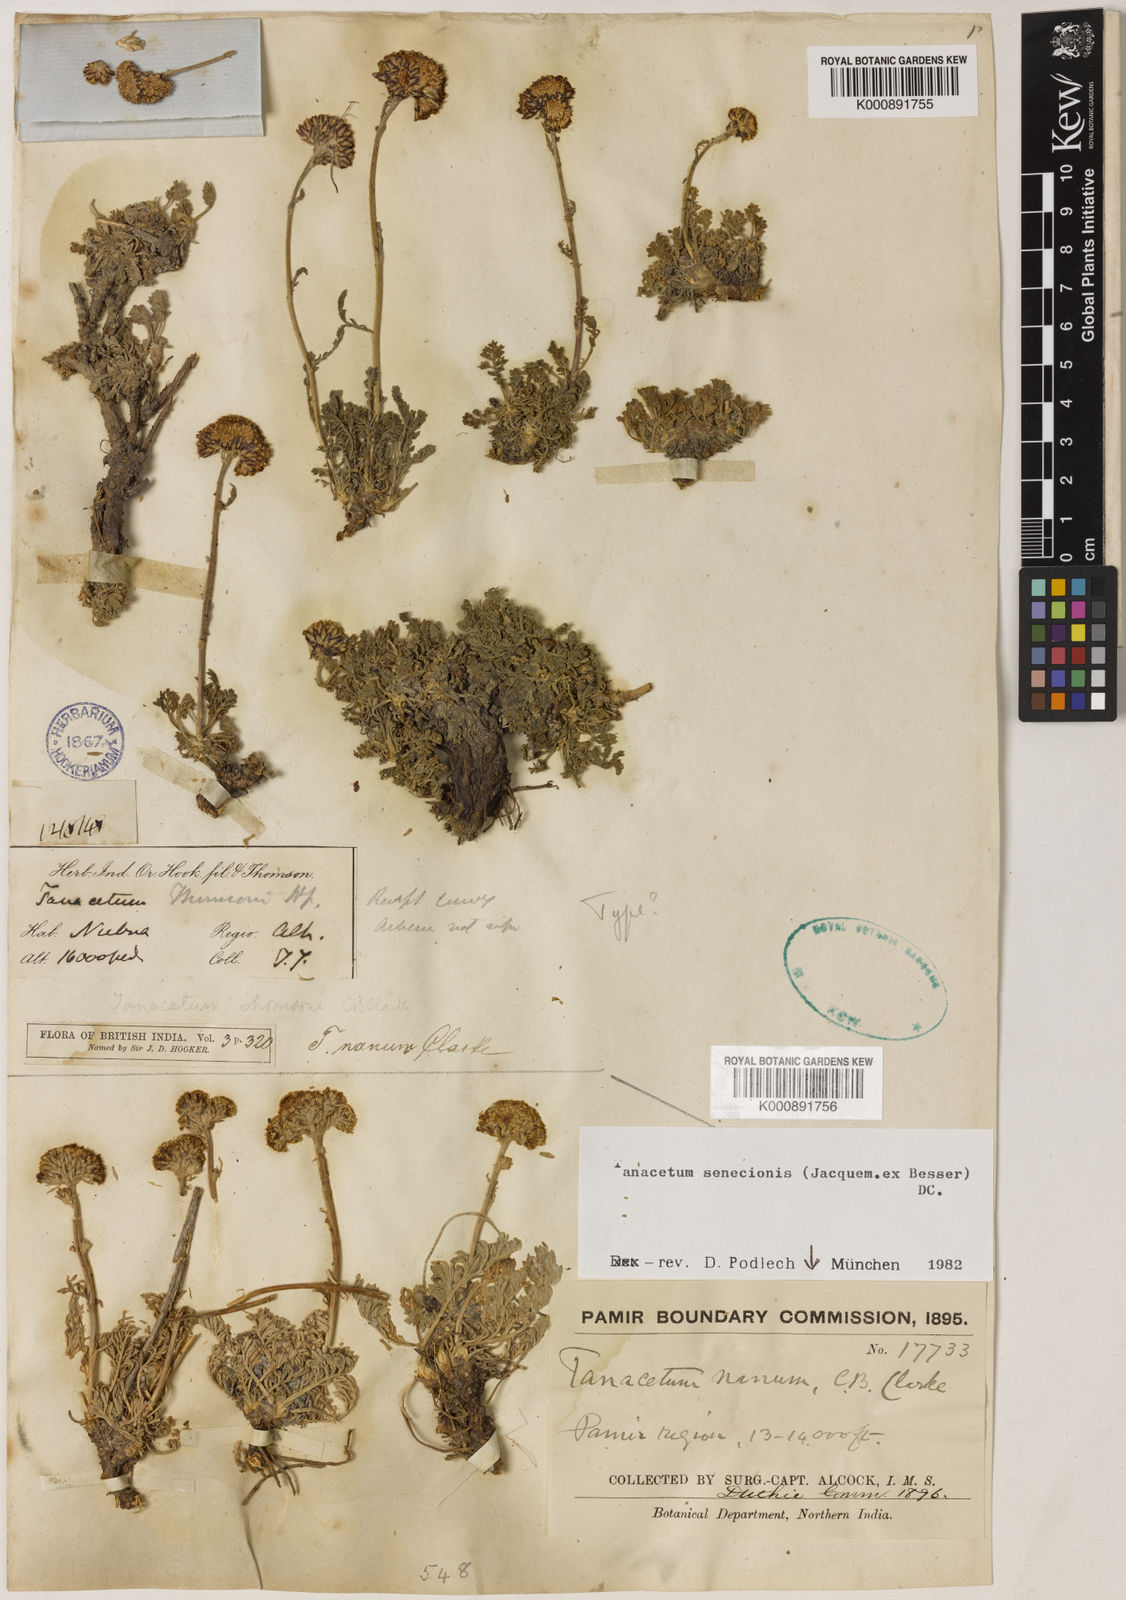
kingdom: Plantae
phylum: Tracheophyta
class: Magnoliopsida
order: Asterales
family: Asteraceae
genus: Hippolytia
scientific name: Hippolytia nana
